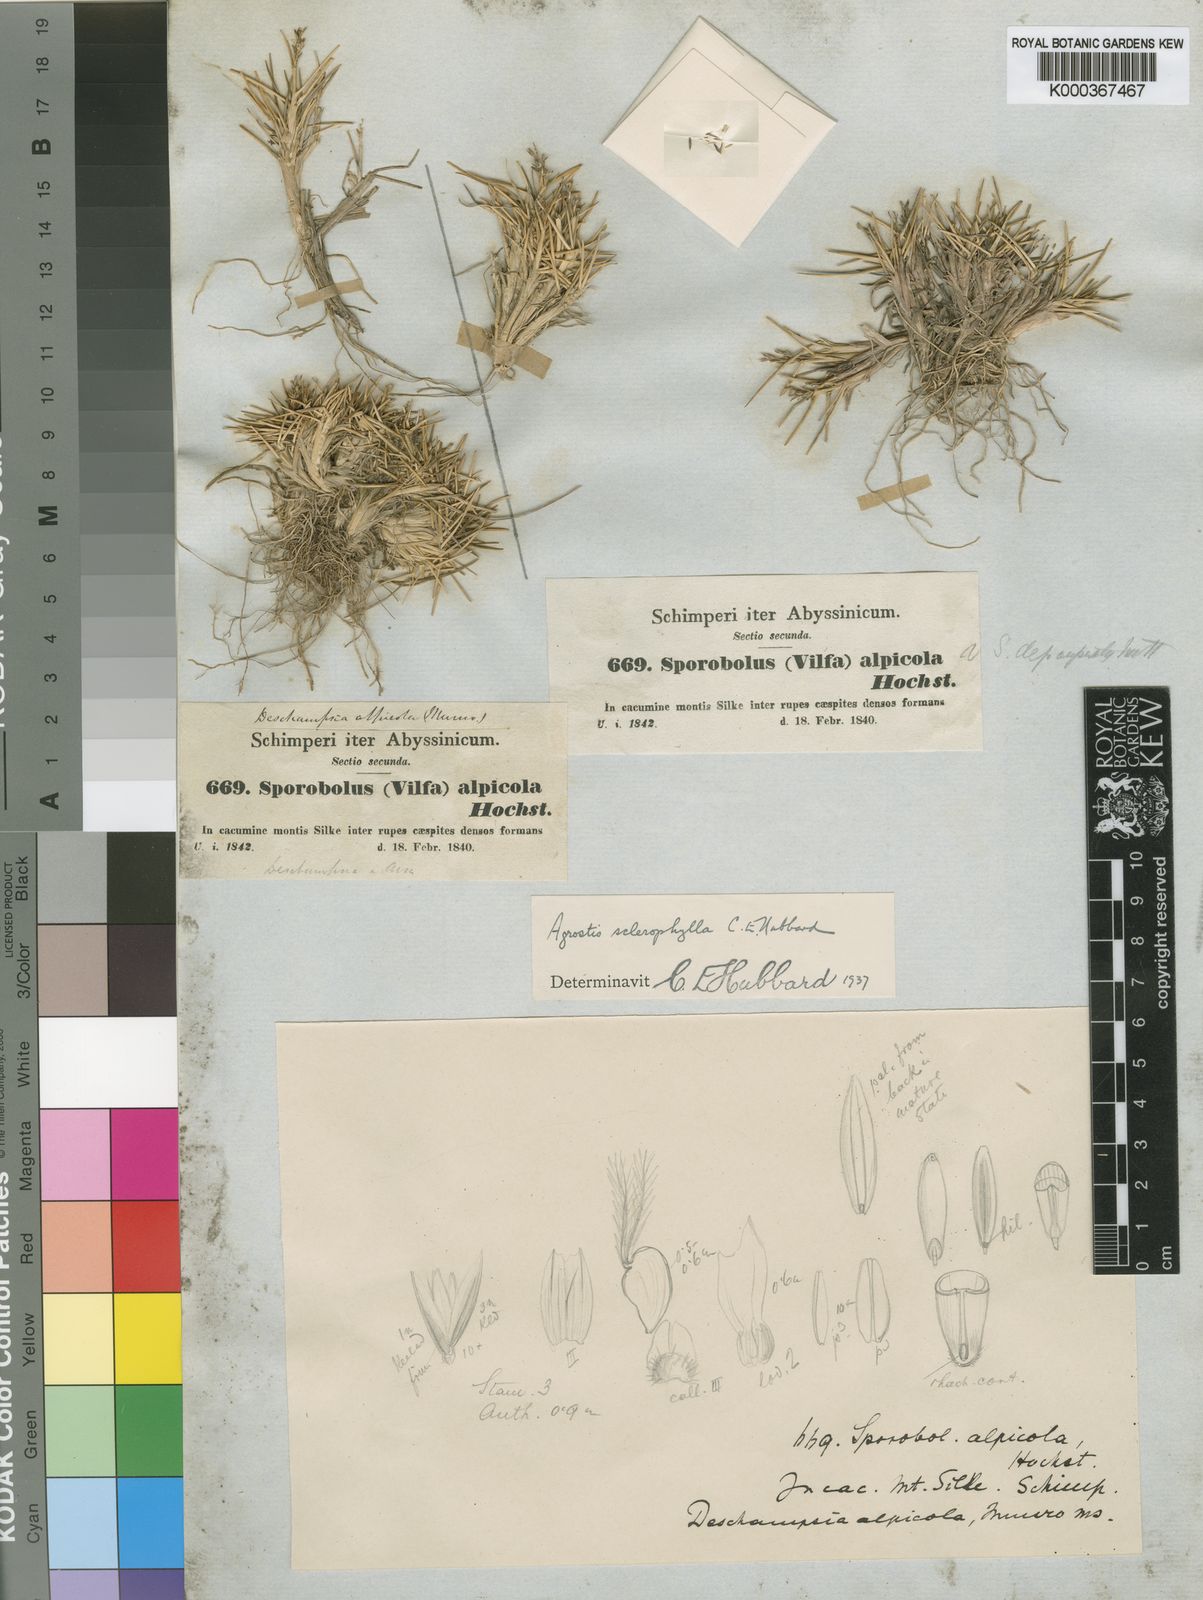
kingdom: Plantae
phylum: Tracheophyta
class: Liliopsida
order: Poales
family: Poaceae
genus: Agrostis
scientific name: Agrostis sclerophylla
